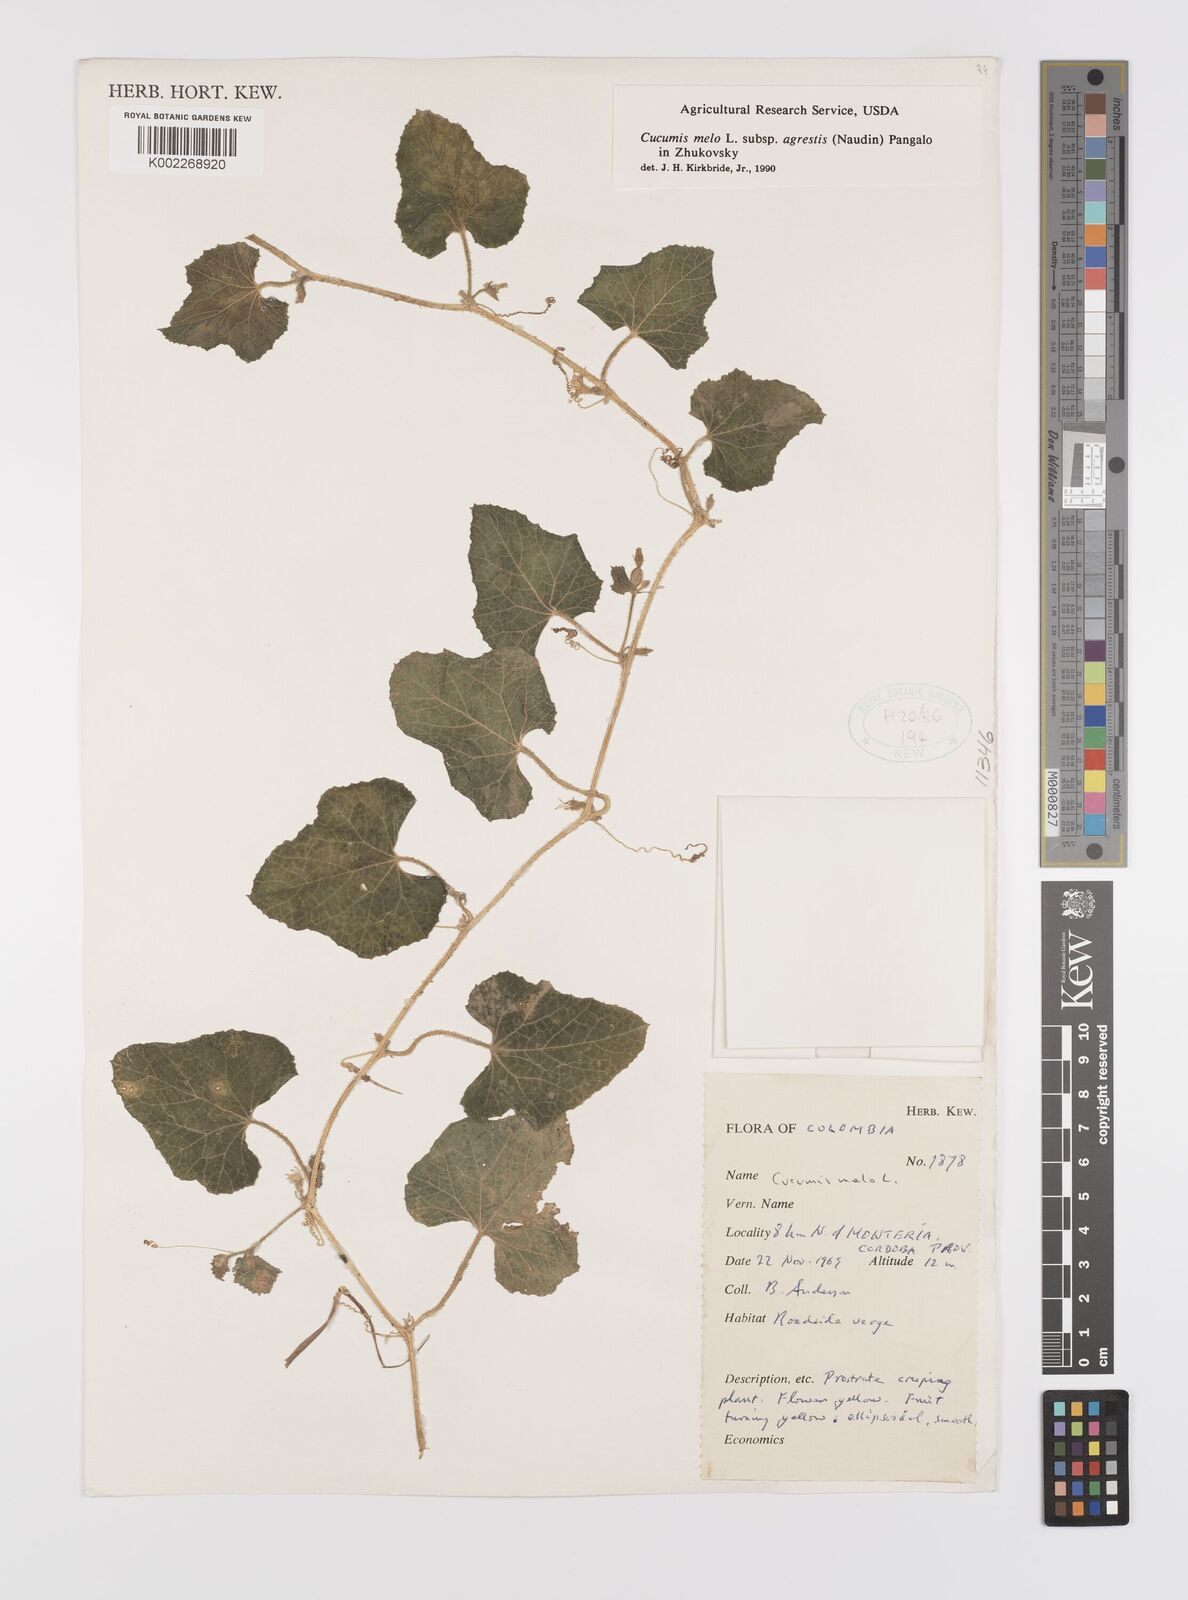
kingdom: Plantae
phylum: Tracheophyta
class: Magnoliopsida
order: Cucurbitales
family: Cucurbitaceae
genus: Cucumis
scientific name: Cucumis melo
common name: Melon
